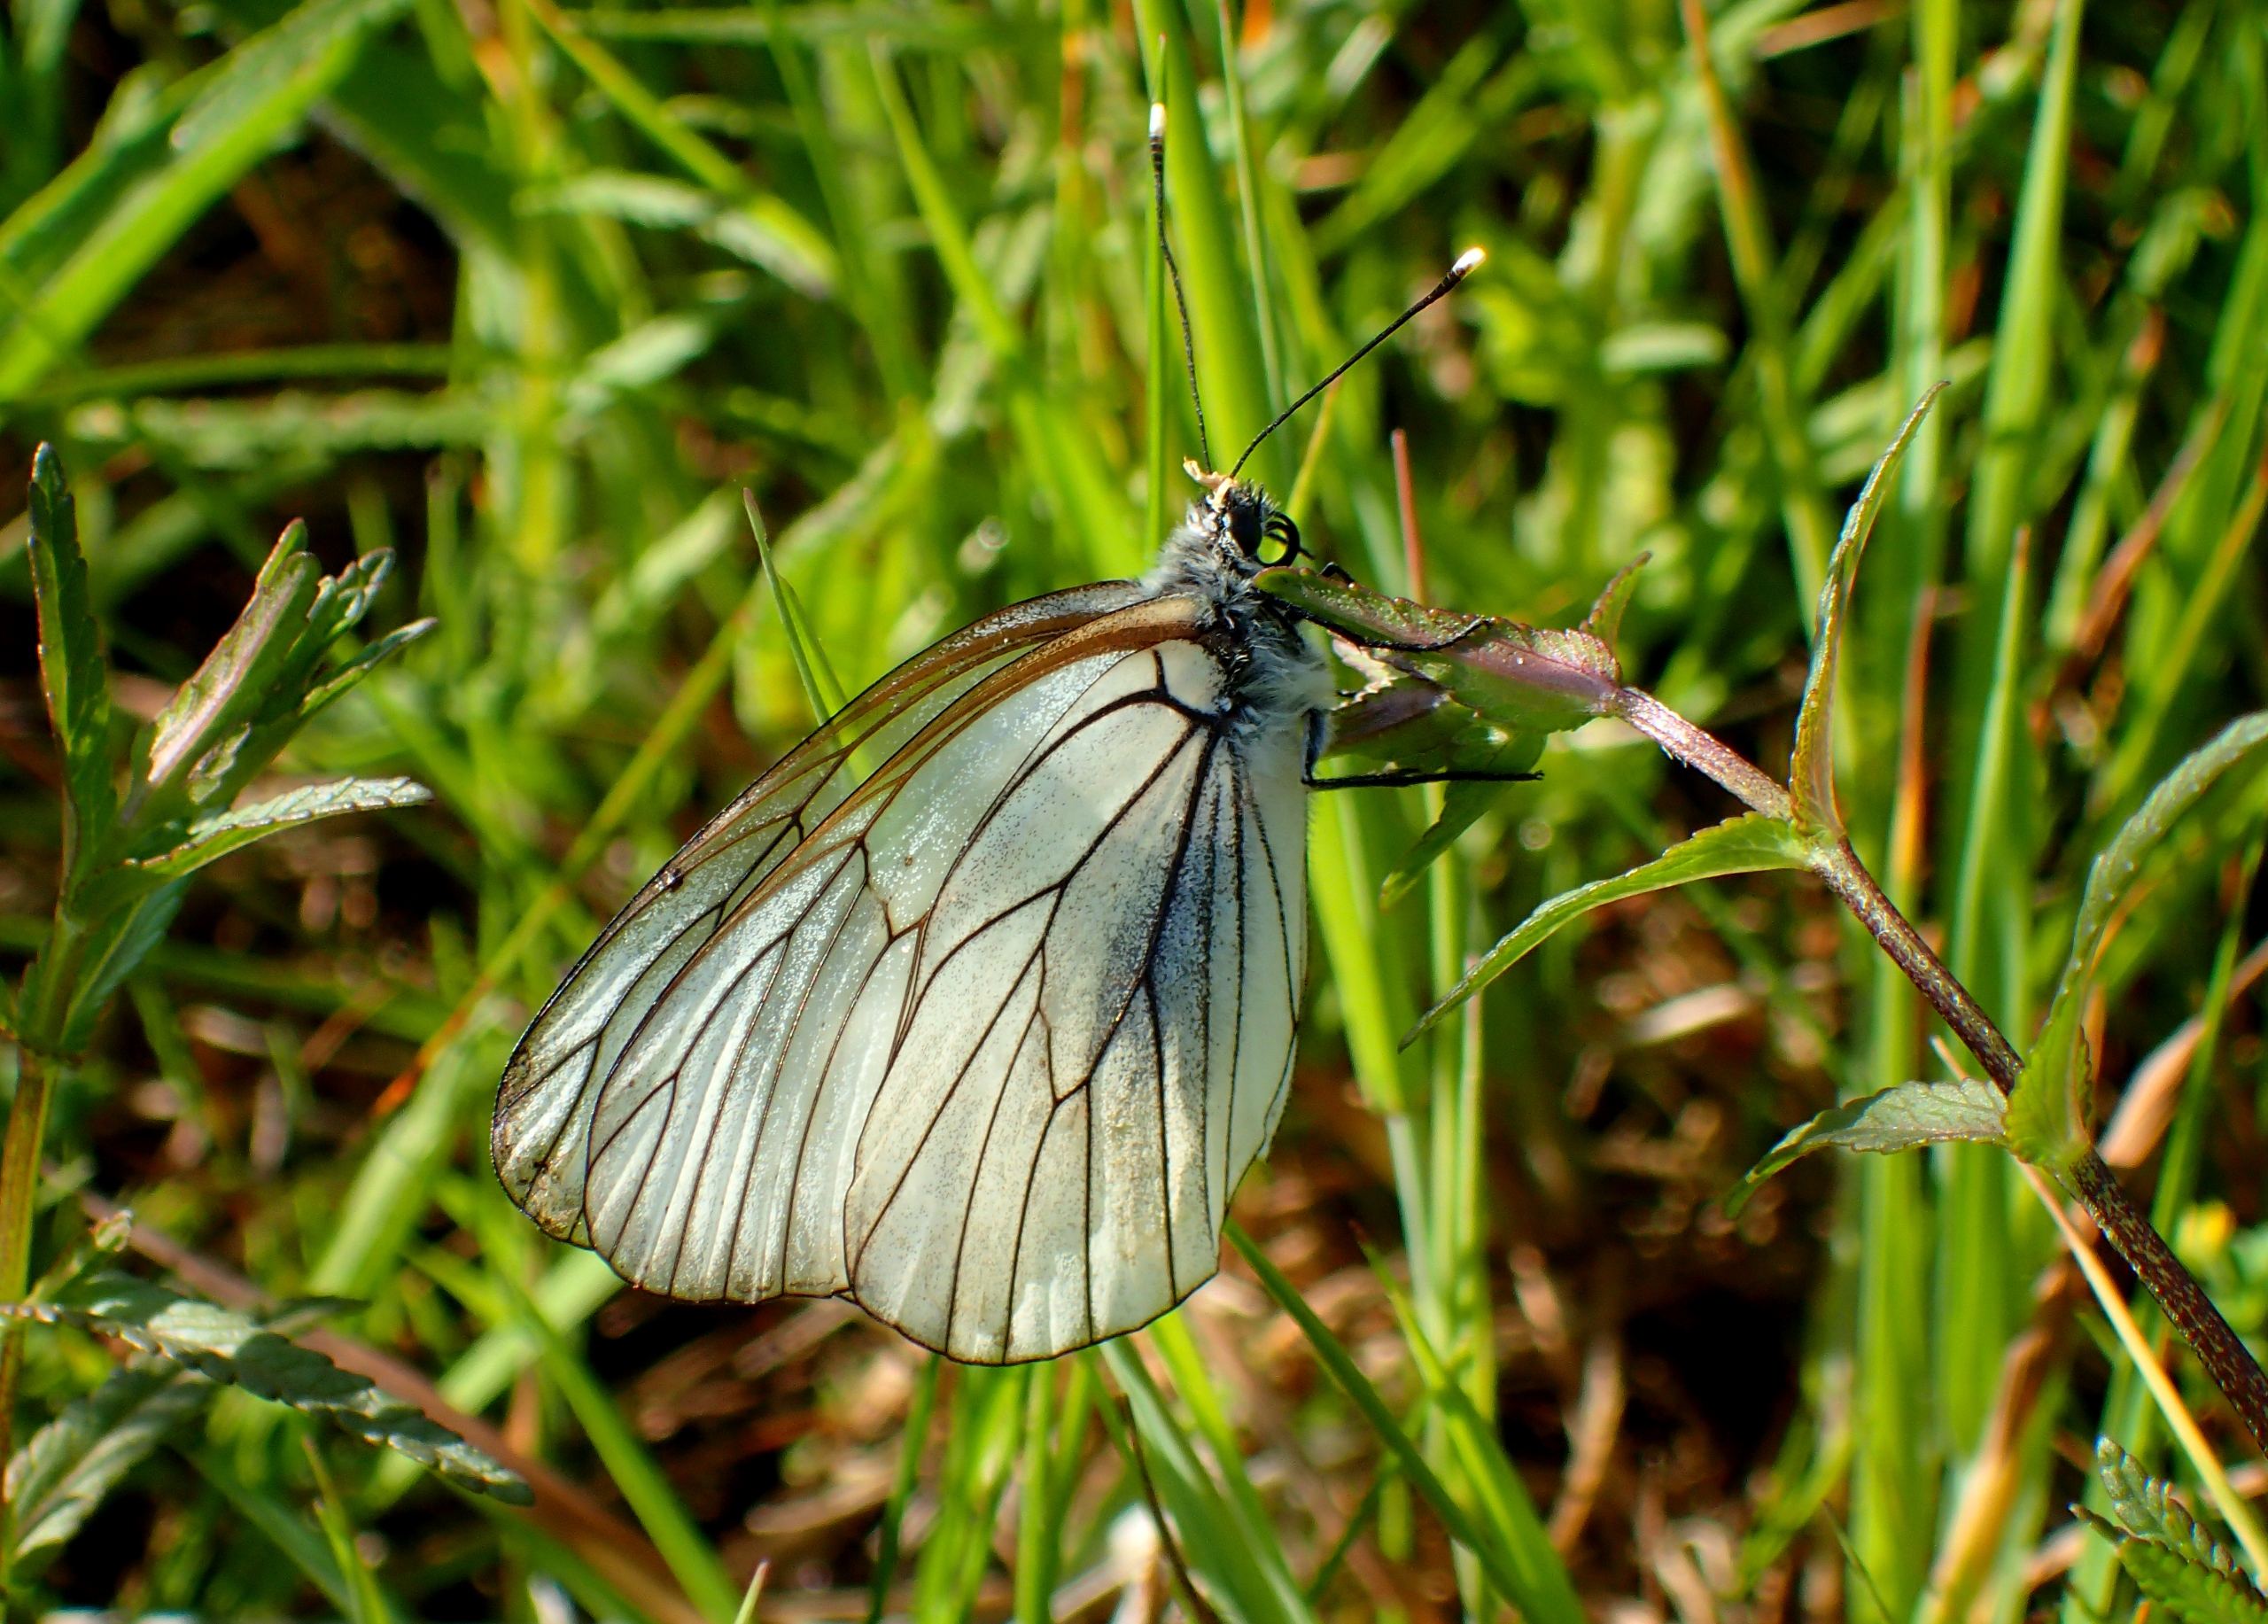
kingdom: Animalia
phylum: Arthropoda
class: Insecta
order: Lepidoptera
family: Pieridae
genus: Aporia
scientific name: Aporia crataegi
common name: Sortåret hvidvinge
